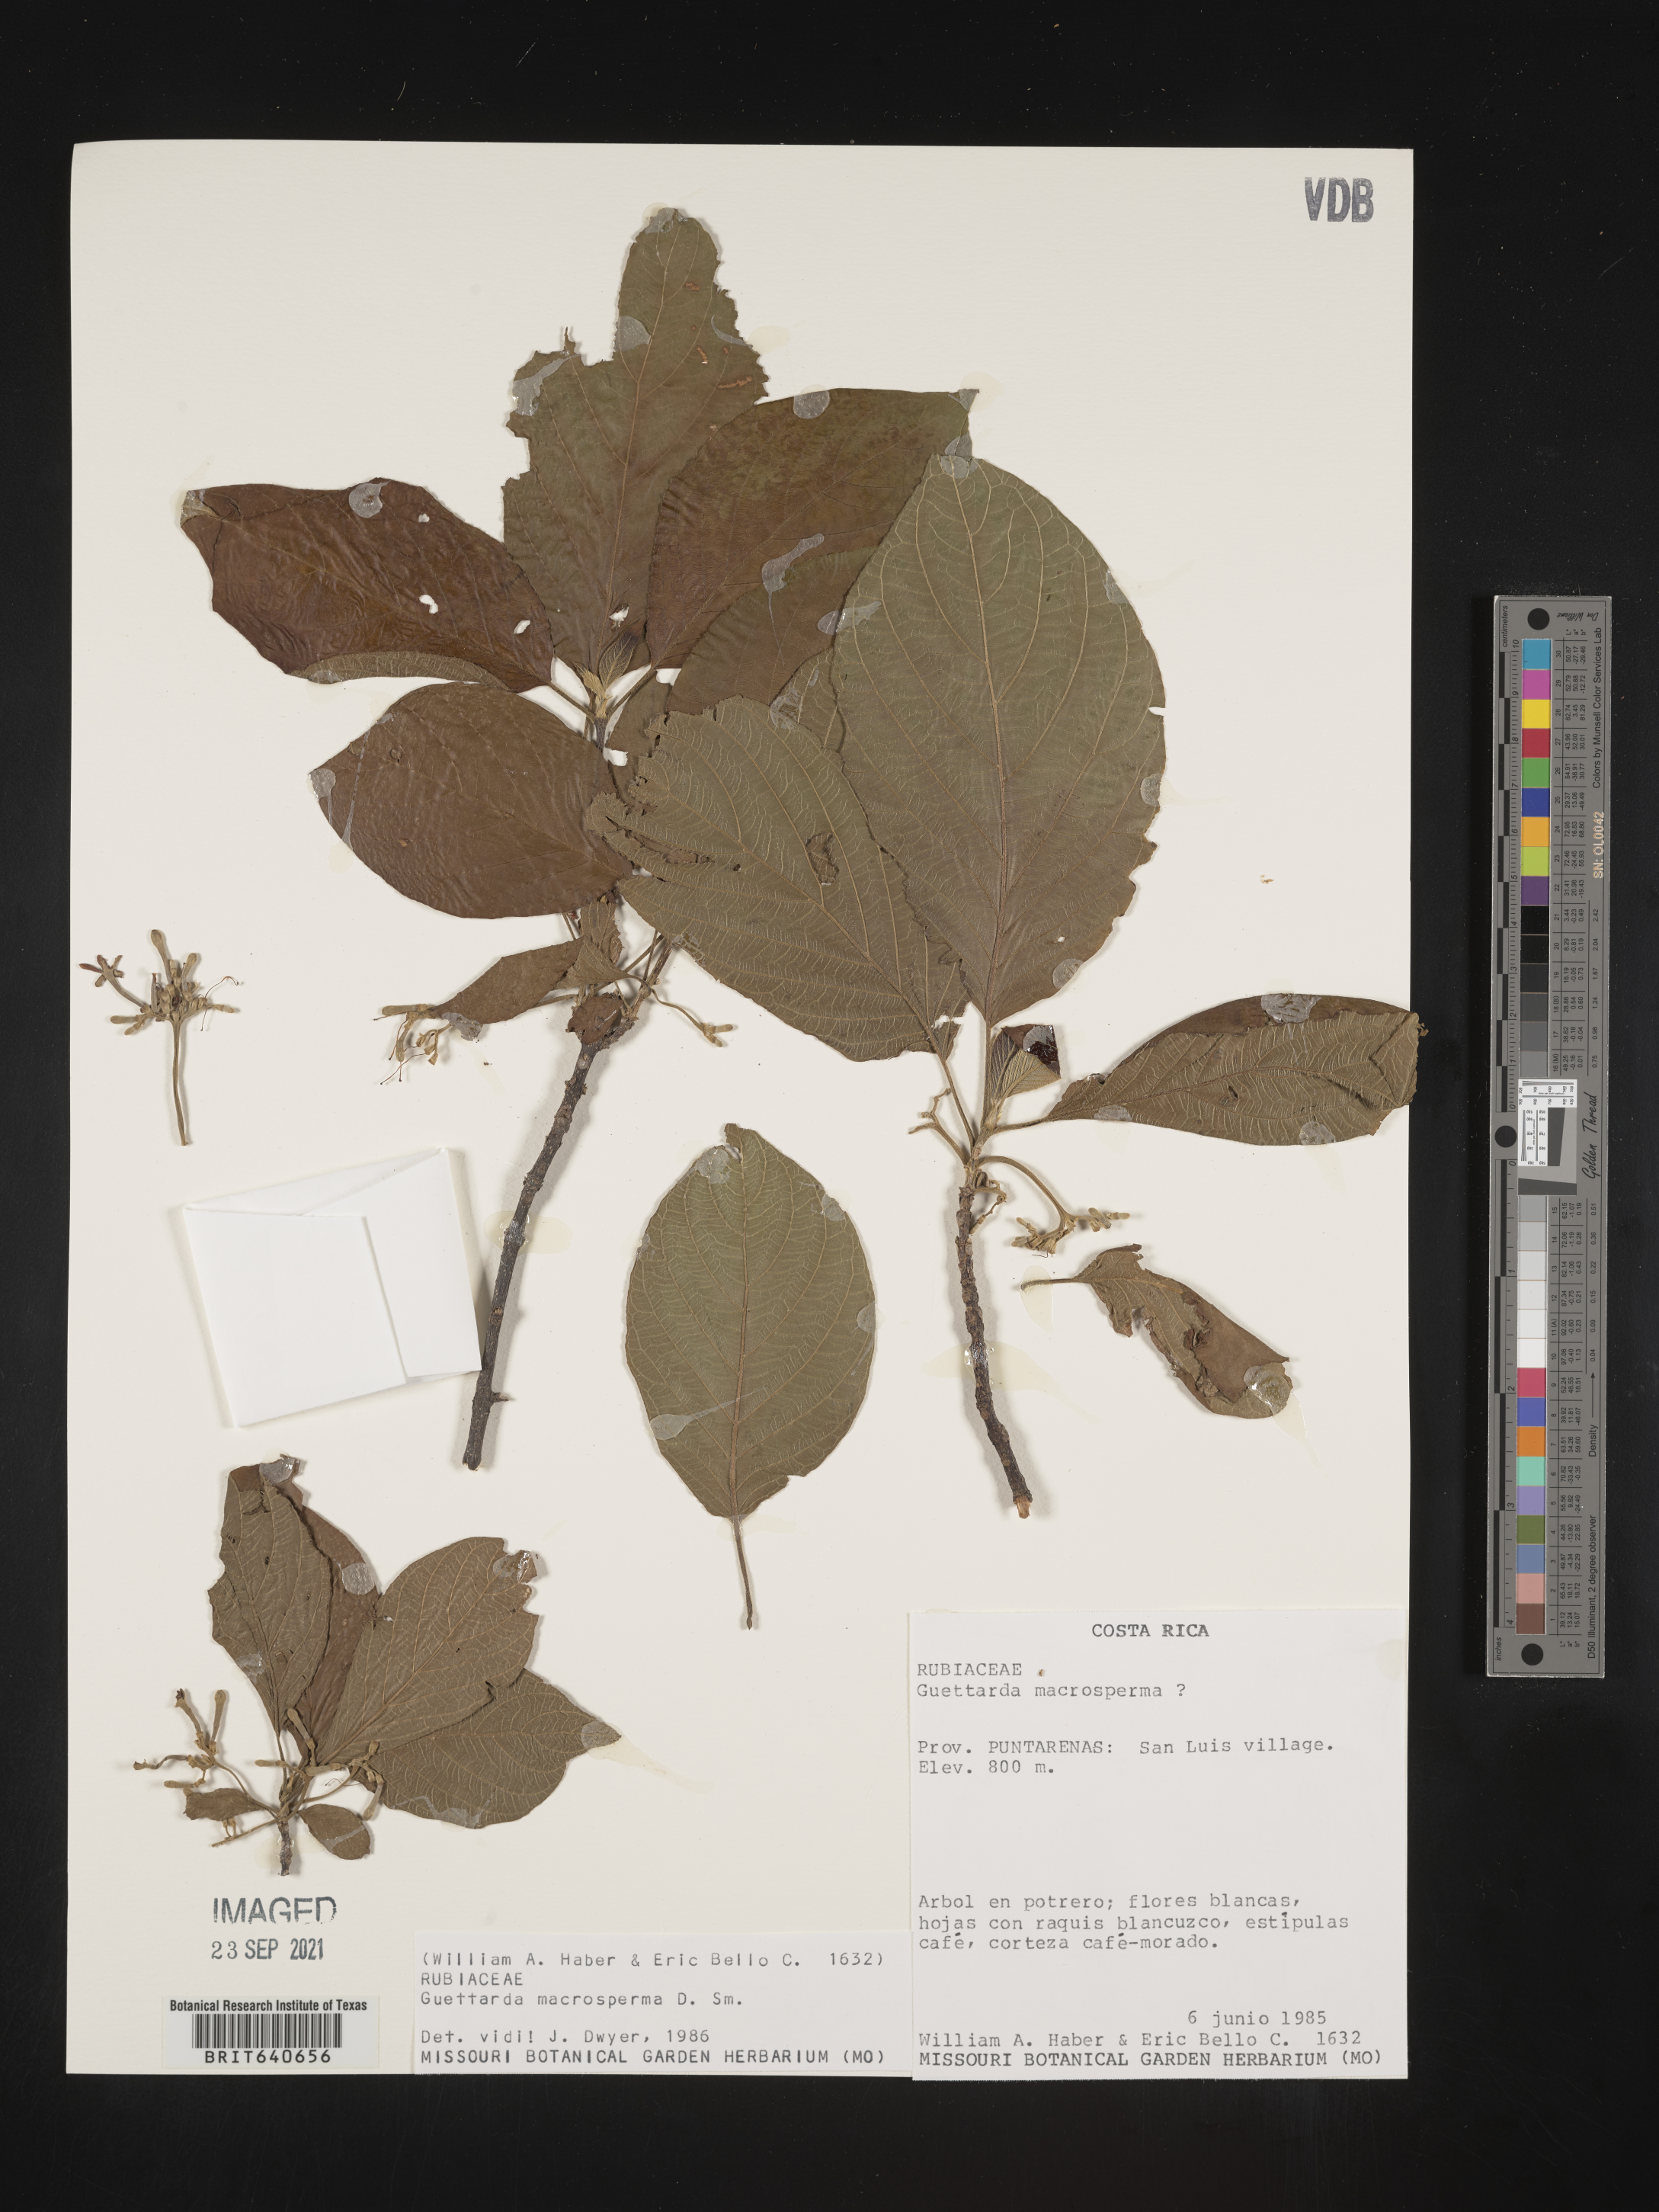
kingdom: Plantae
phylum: Tracheophyta
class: Magnoliopsida
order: Gentianales
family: Rubiaceae
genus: Guettarda
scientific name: Guettarda
